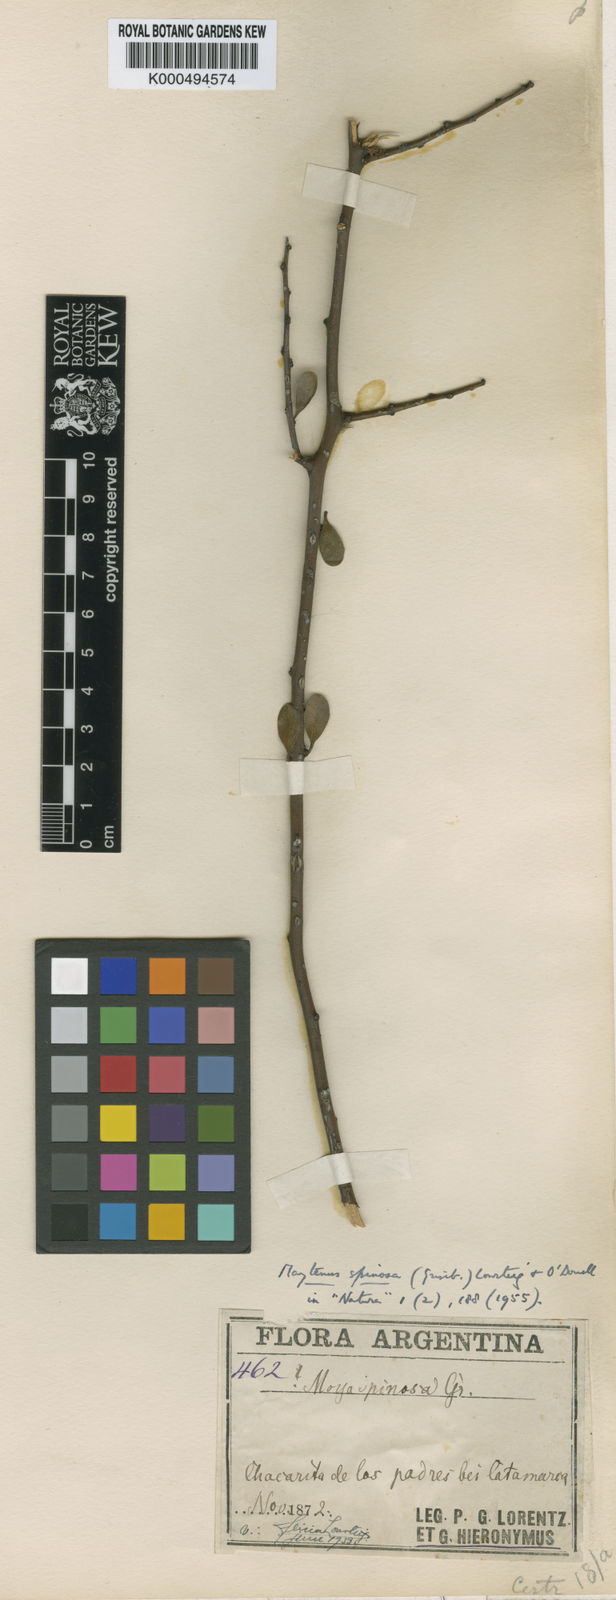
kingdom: Plantae
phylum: Tracheophyta
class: Magnoliopsida
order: Celastrales
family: Celastraceae
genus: Monteverdia
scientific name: Monteverdia spinosa
